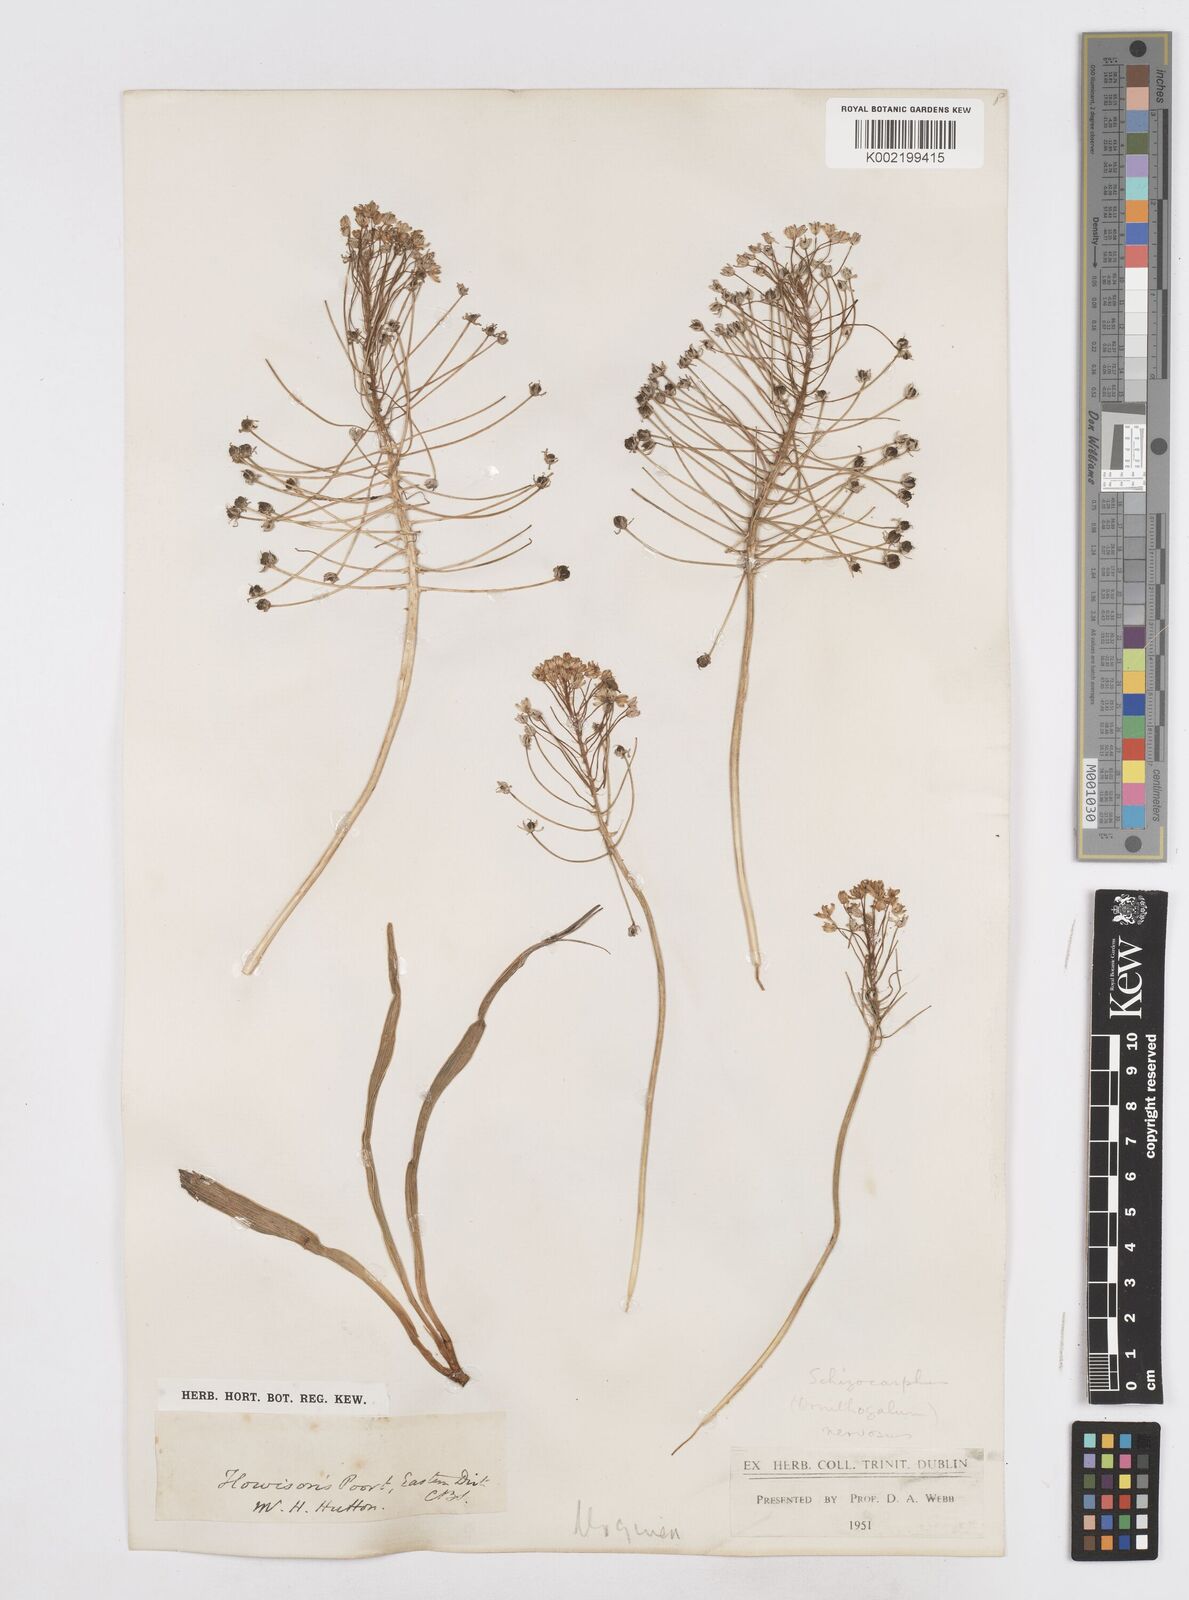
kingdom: Plantae
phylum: Tracheophyta
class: Liliopsida
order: Asparagales
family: Asparagaceae
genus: Schizocarphus
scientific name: Schizocarphus nervosus
